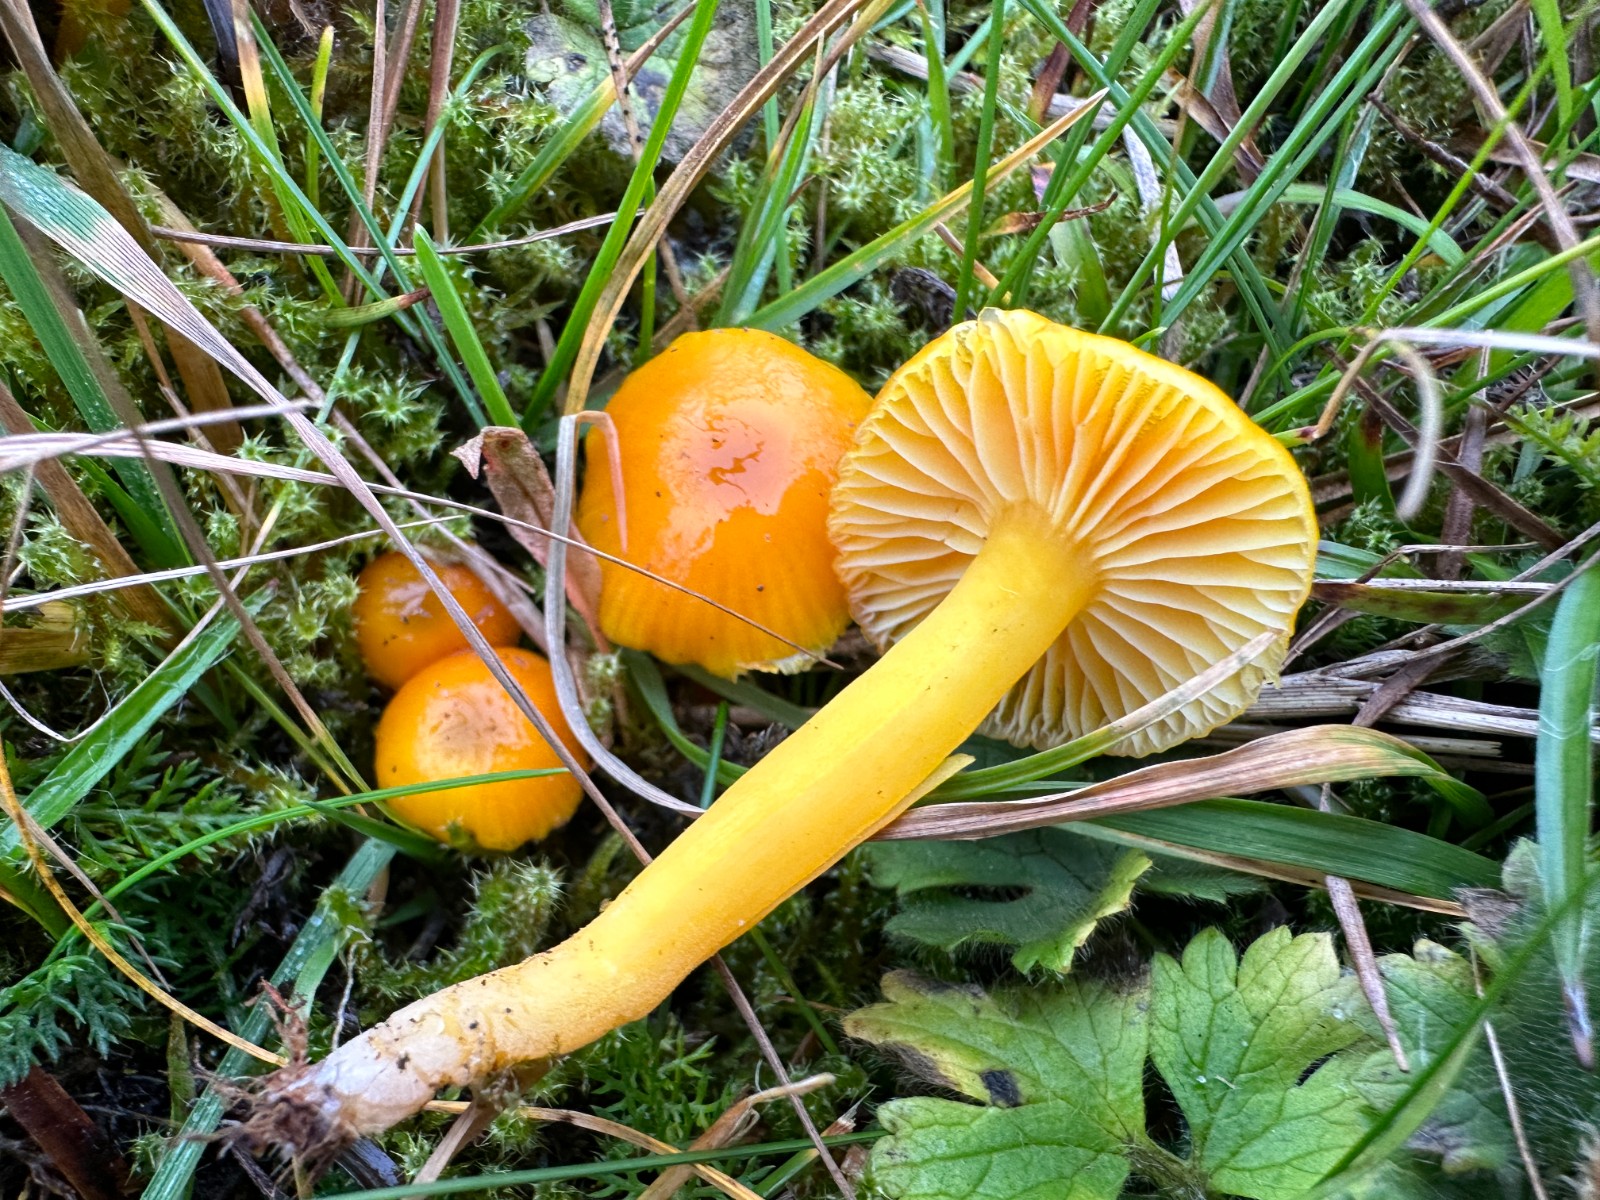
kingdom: Fungi
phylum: Basidiomycota
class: Agaricomycetes
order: Agaricales
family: Hygrophoraceae
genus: Hygrocybe
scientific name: Hygrocybe ceracea
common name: voksgul vokshat
